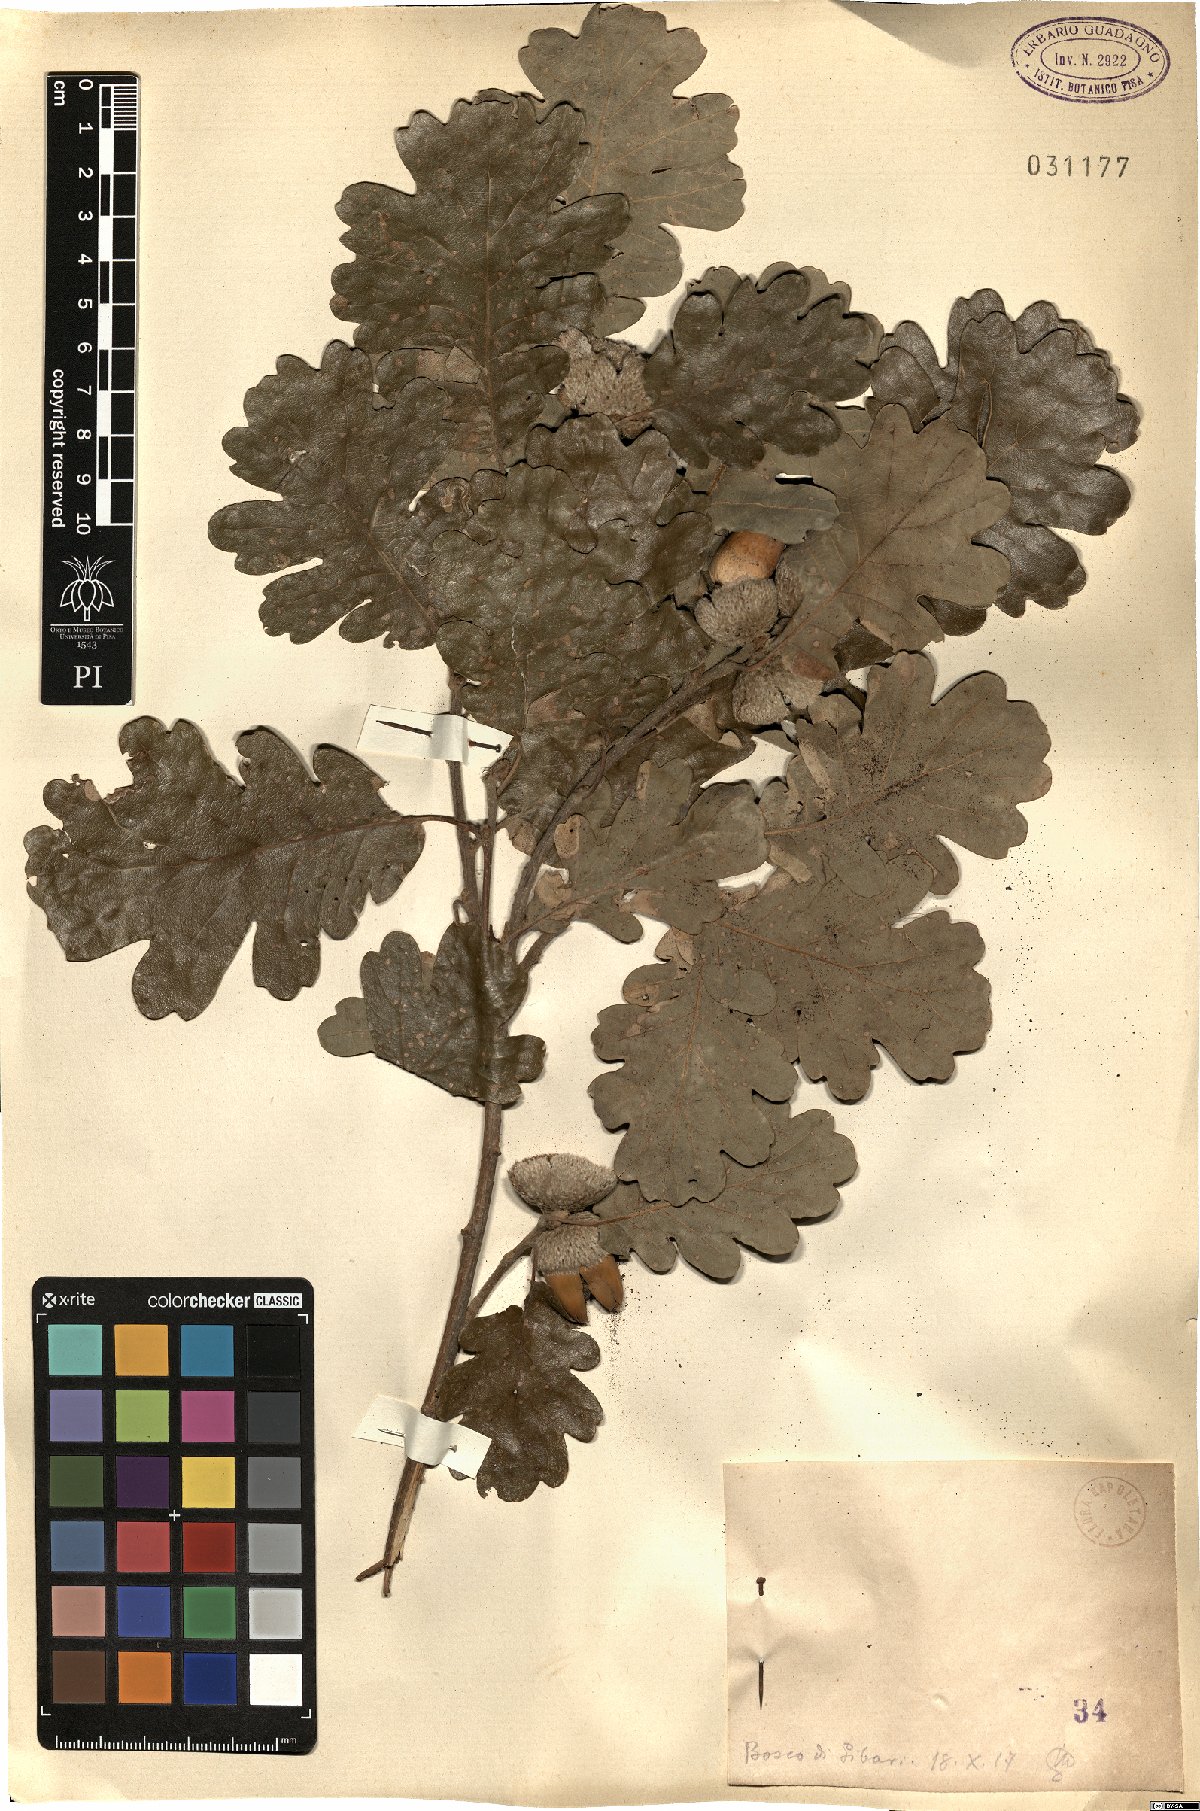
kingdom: Plantae
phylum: Tracheophyta
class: Magnoliopsida
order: Fagales
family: Fagaceae
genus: Quercus
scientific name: Quercus
